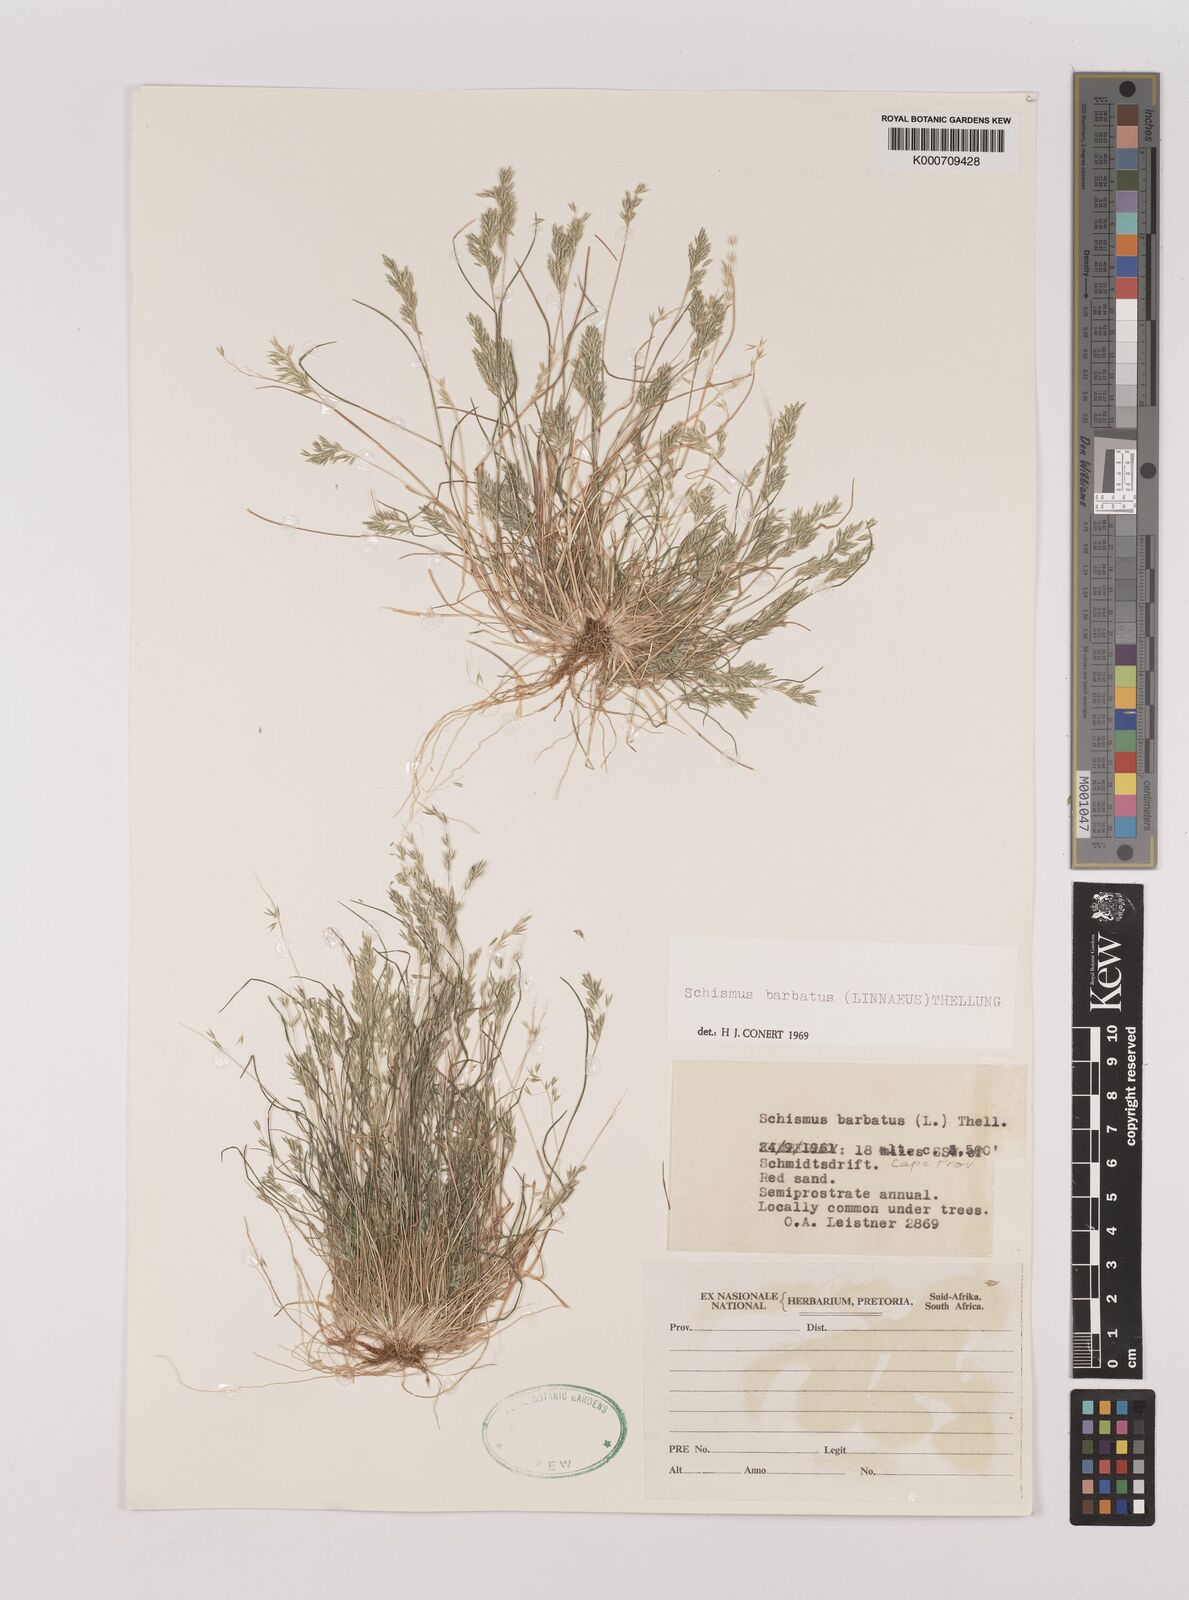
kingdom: Plantae
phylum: Tracheophyta
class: Liliopsida
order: Poales
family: Poaceae
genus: Schismus
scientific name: Schismus barbatus
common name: Kelch-grass
